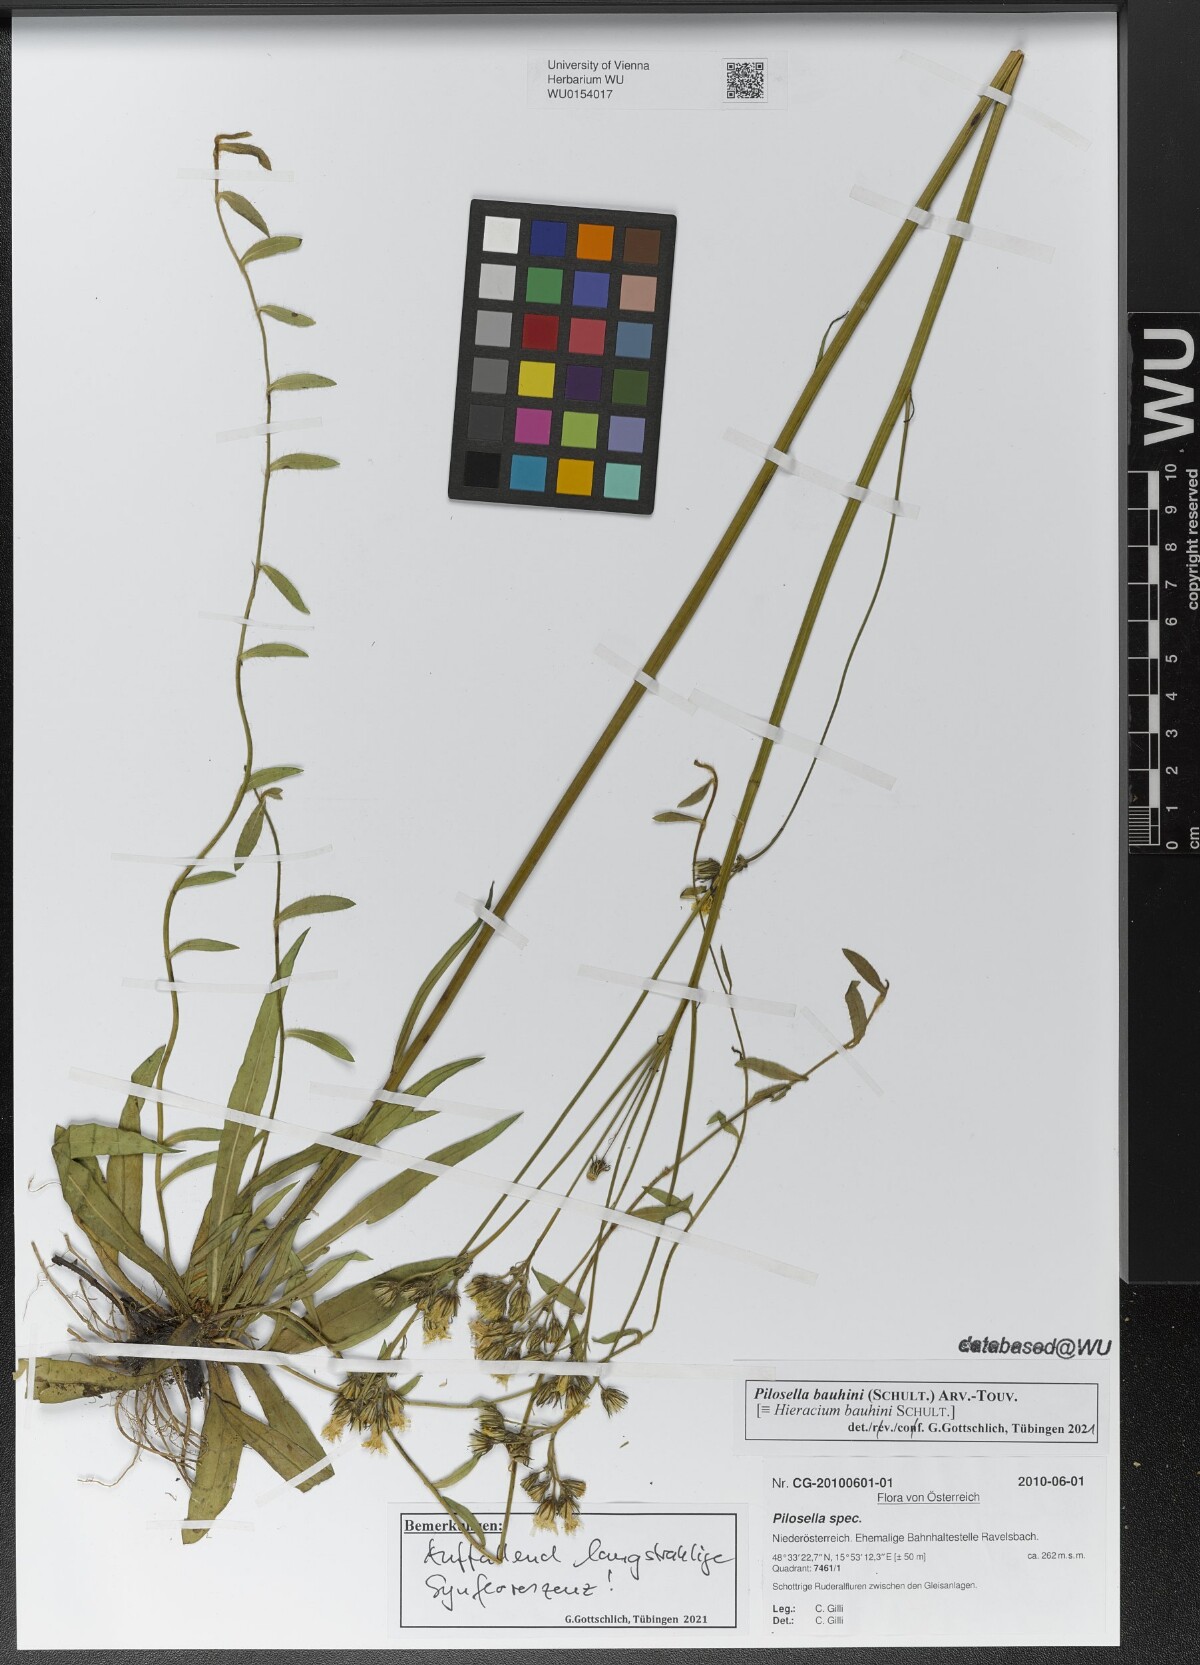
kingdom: Plantae
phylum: Tracheophyta
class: Magnoliopsida
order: Asterales
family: Asteraceae
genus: Pilosella
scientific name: Pilosella bauhini
